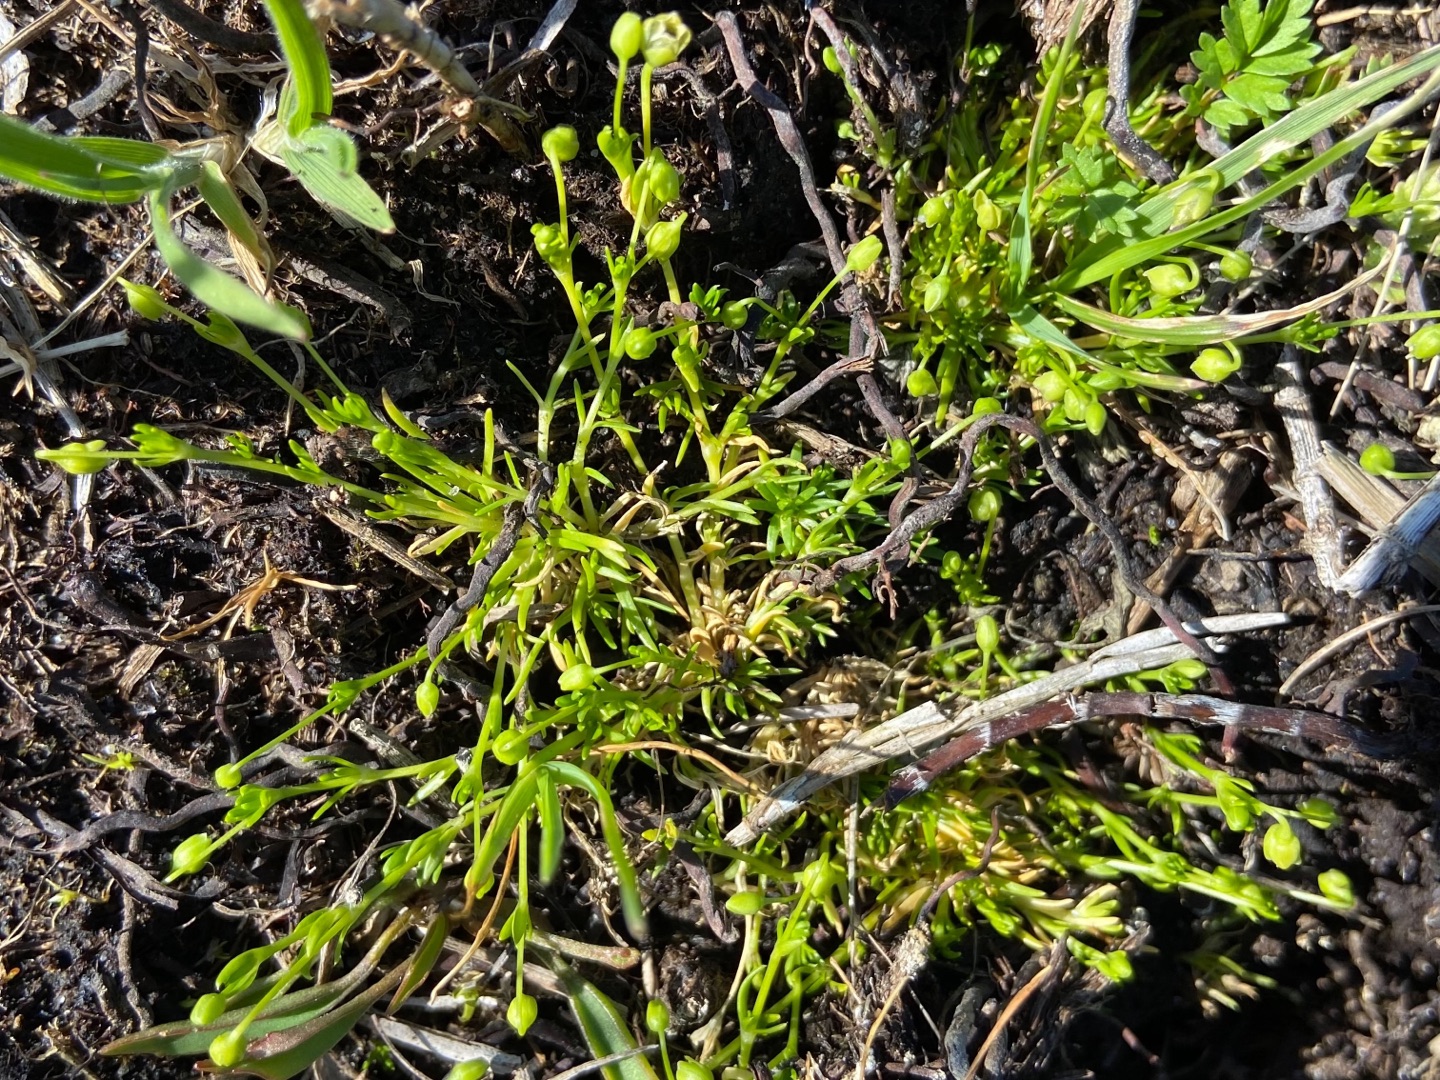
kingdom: Plantae
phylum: Tracheophyta
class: Magnoliopsida
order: Caryophyllales
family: Caryophyllaceae
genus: Sagina
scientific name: Sagina procumbens
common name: Almindelig firling
